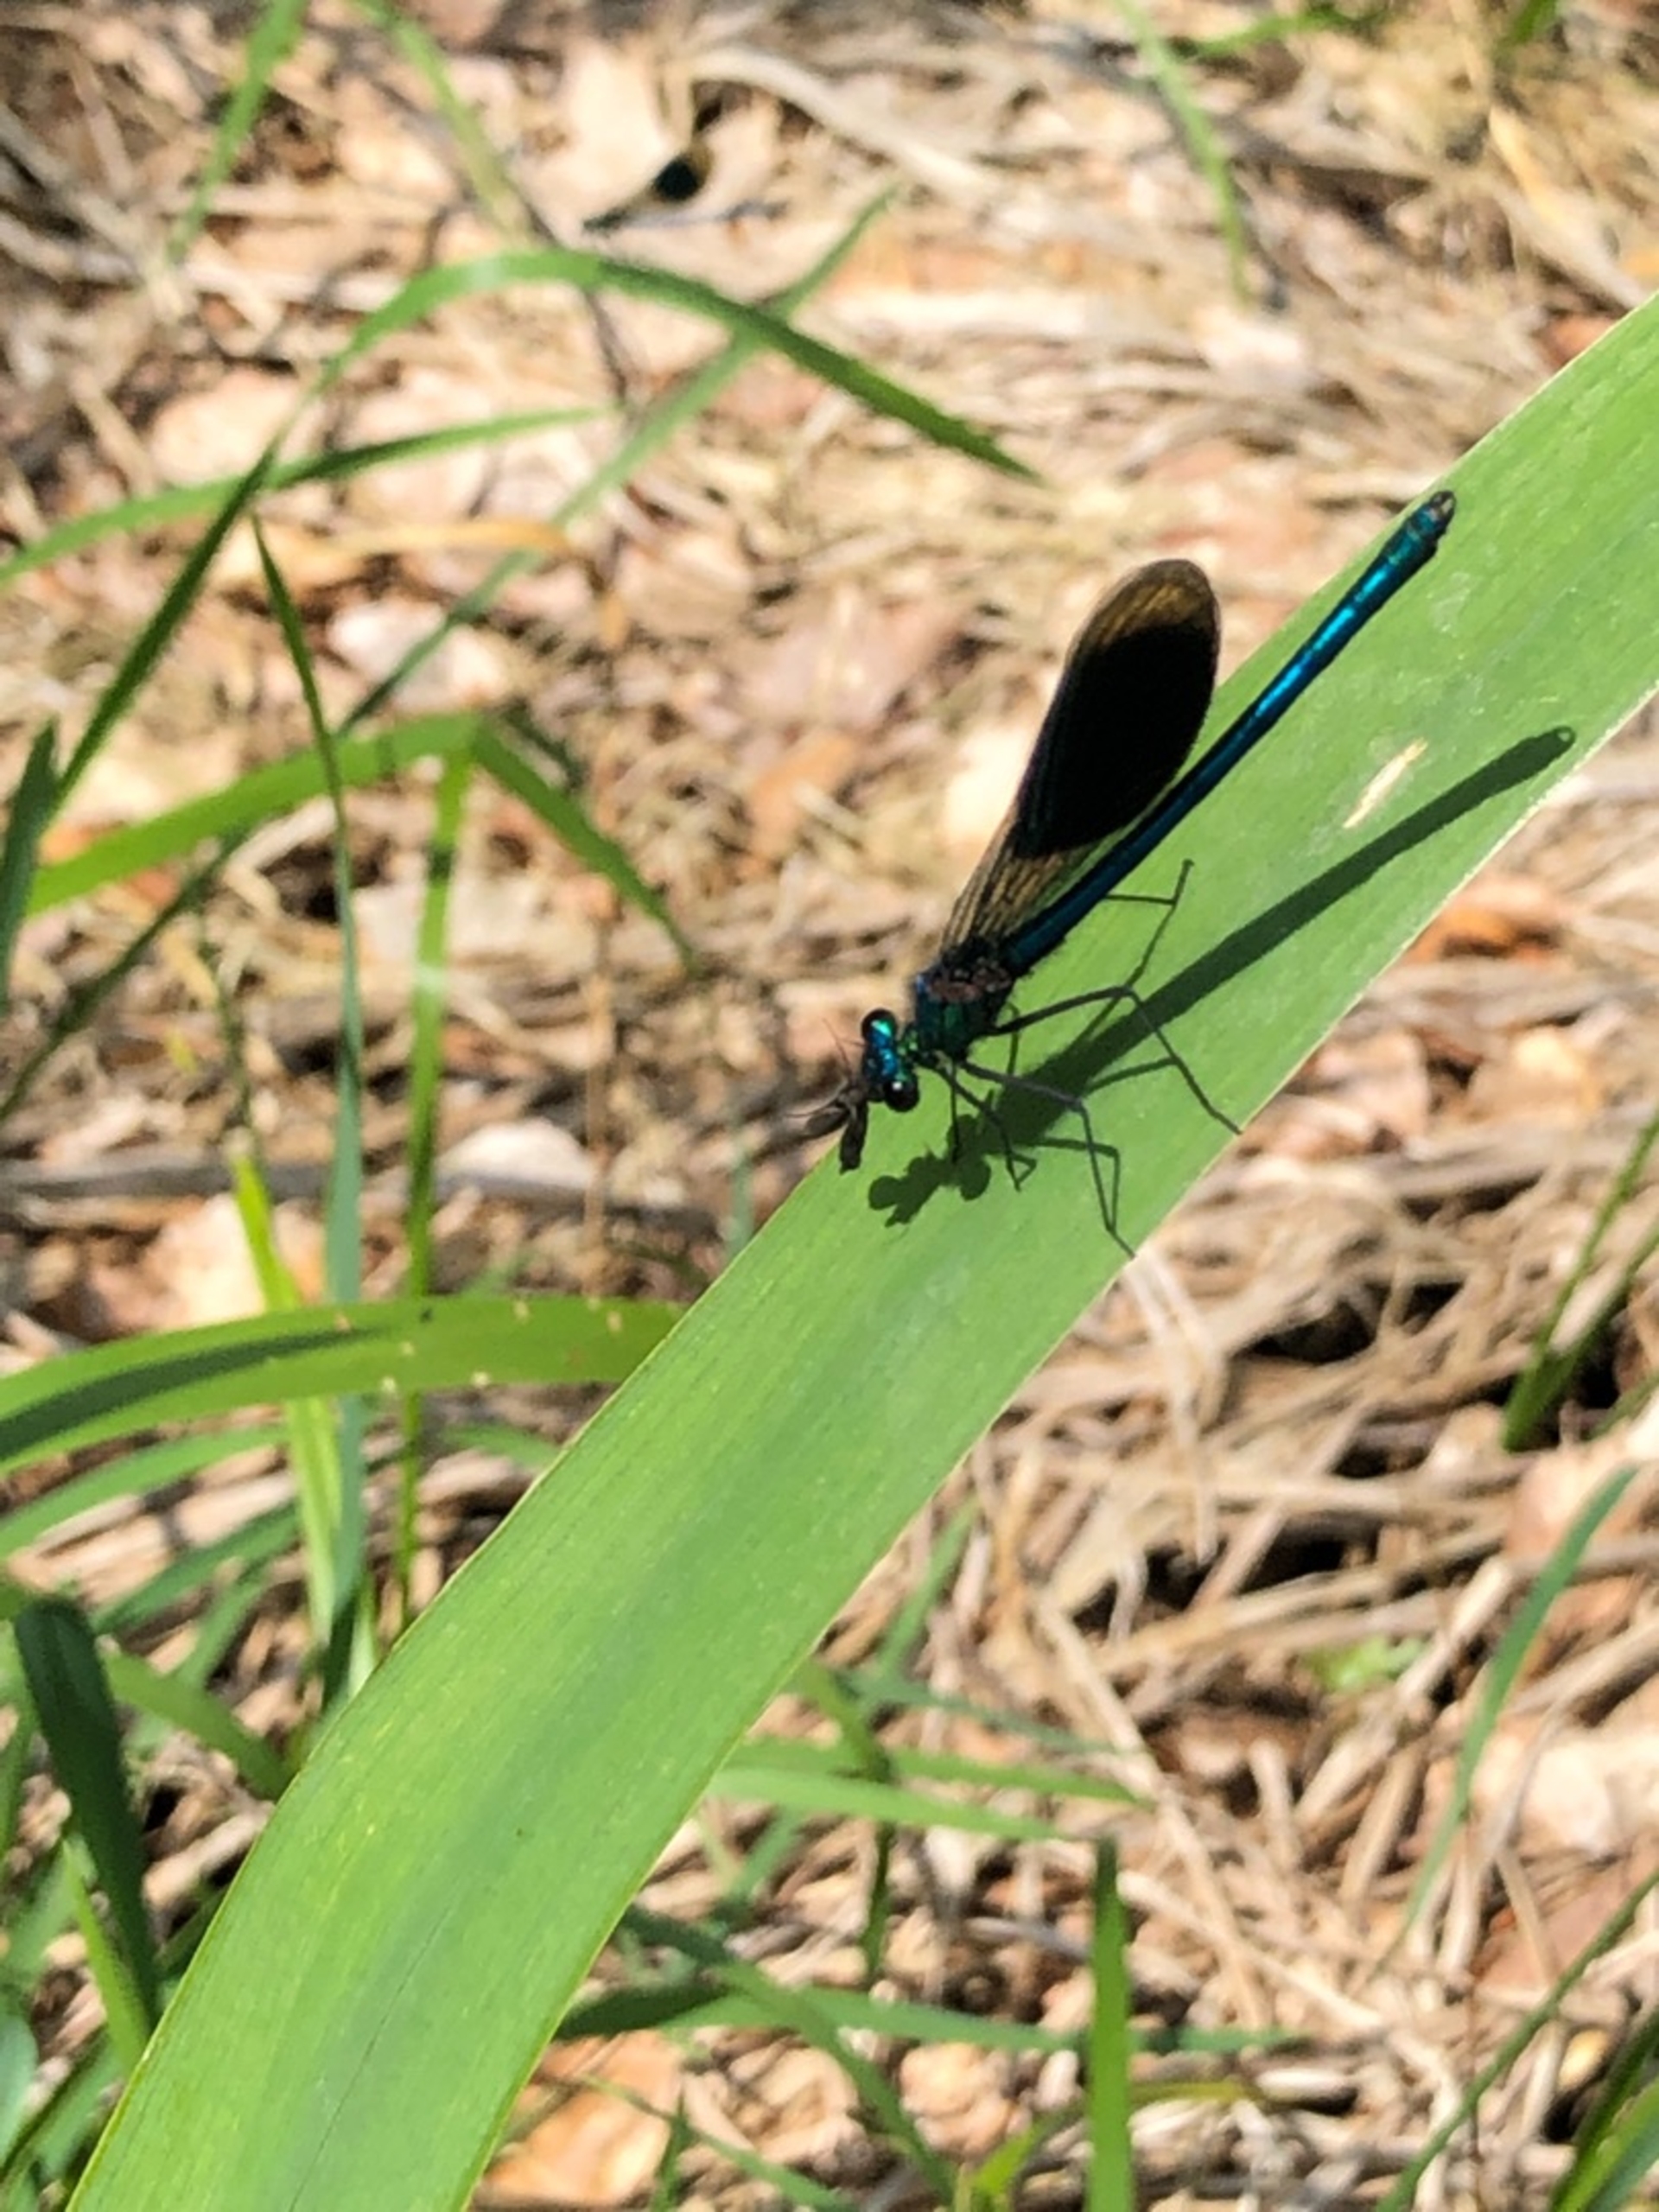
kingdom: Animalia
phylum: Arthropoda
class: Insecta
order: Odonata
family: Calopterygidae
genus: Calopteryx
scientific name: Calopteryx splendens
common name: Blåbåndet pragtvandnymfe
